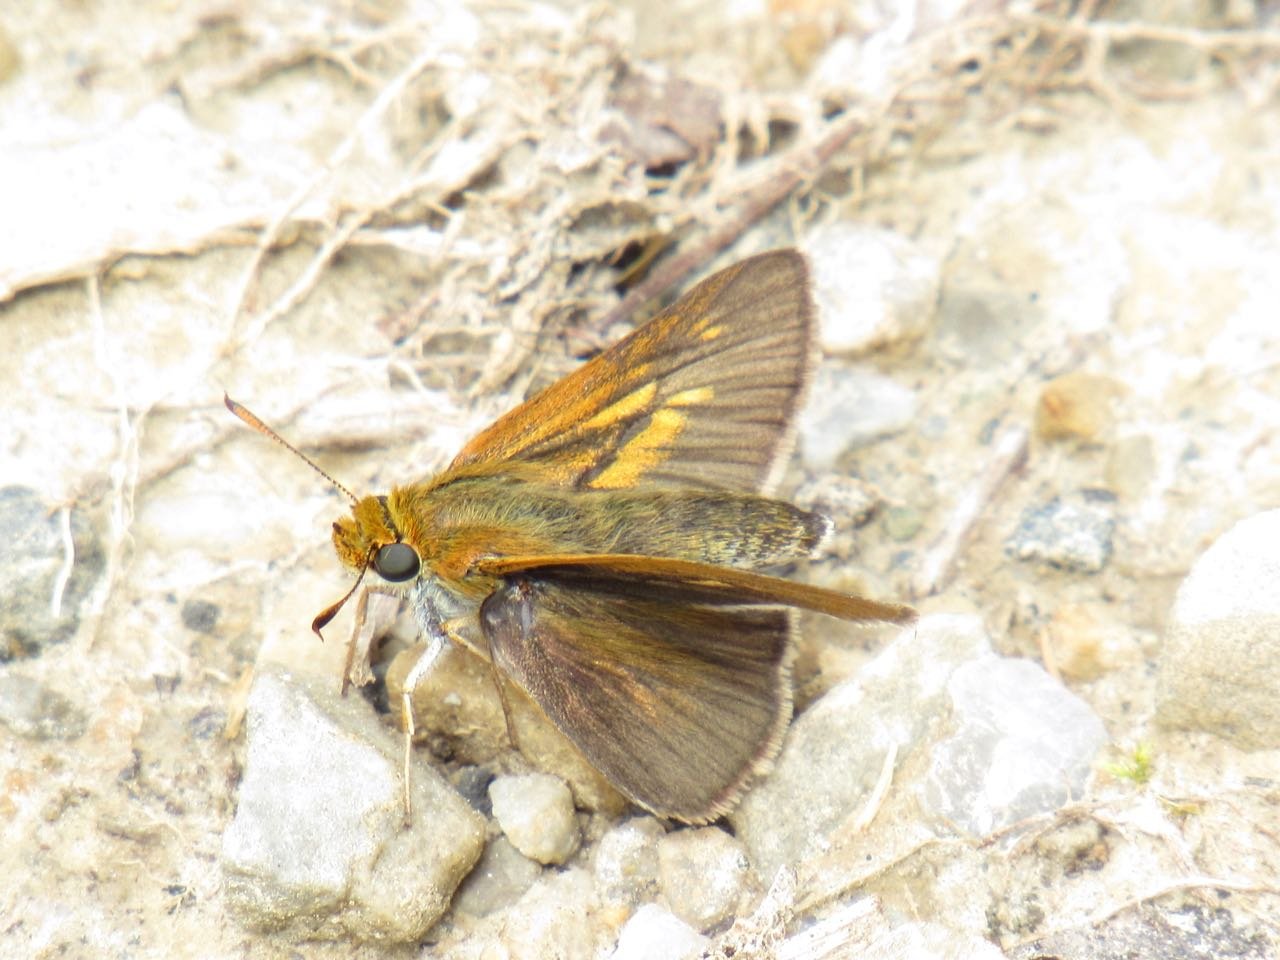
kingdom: Animalia
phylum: Arthropoda
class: Insecta
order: Lepidoptera
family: Hesperiidae
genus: Euphyes
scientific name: Euphyes bimacula
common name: Two-spotted Skipper
